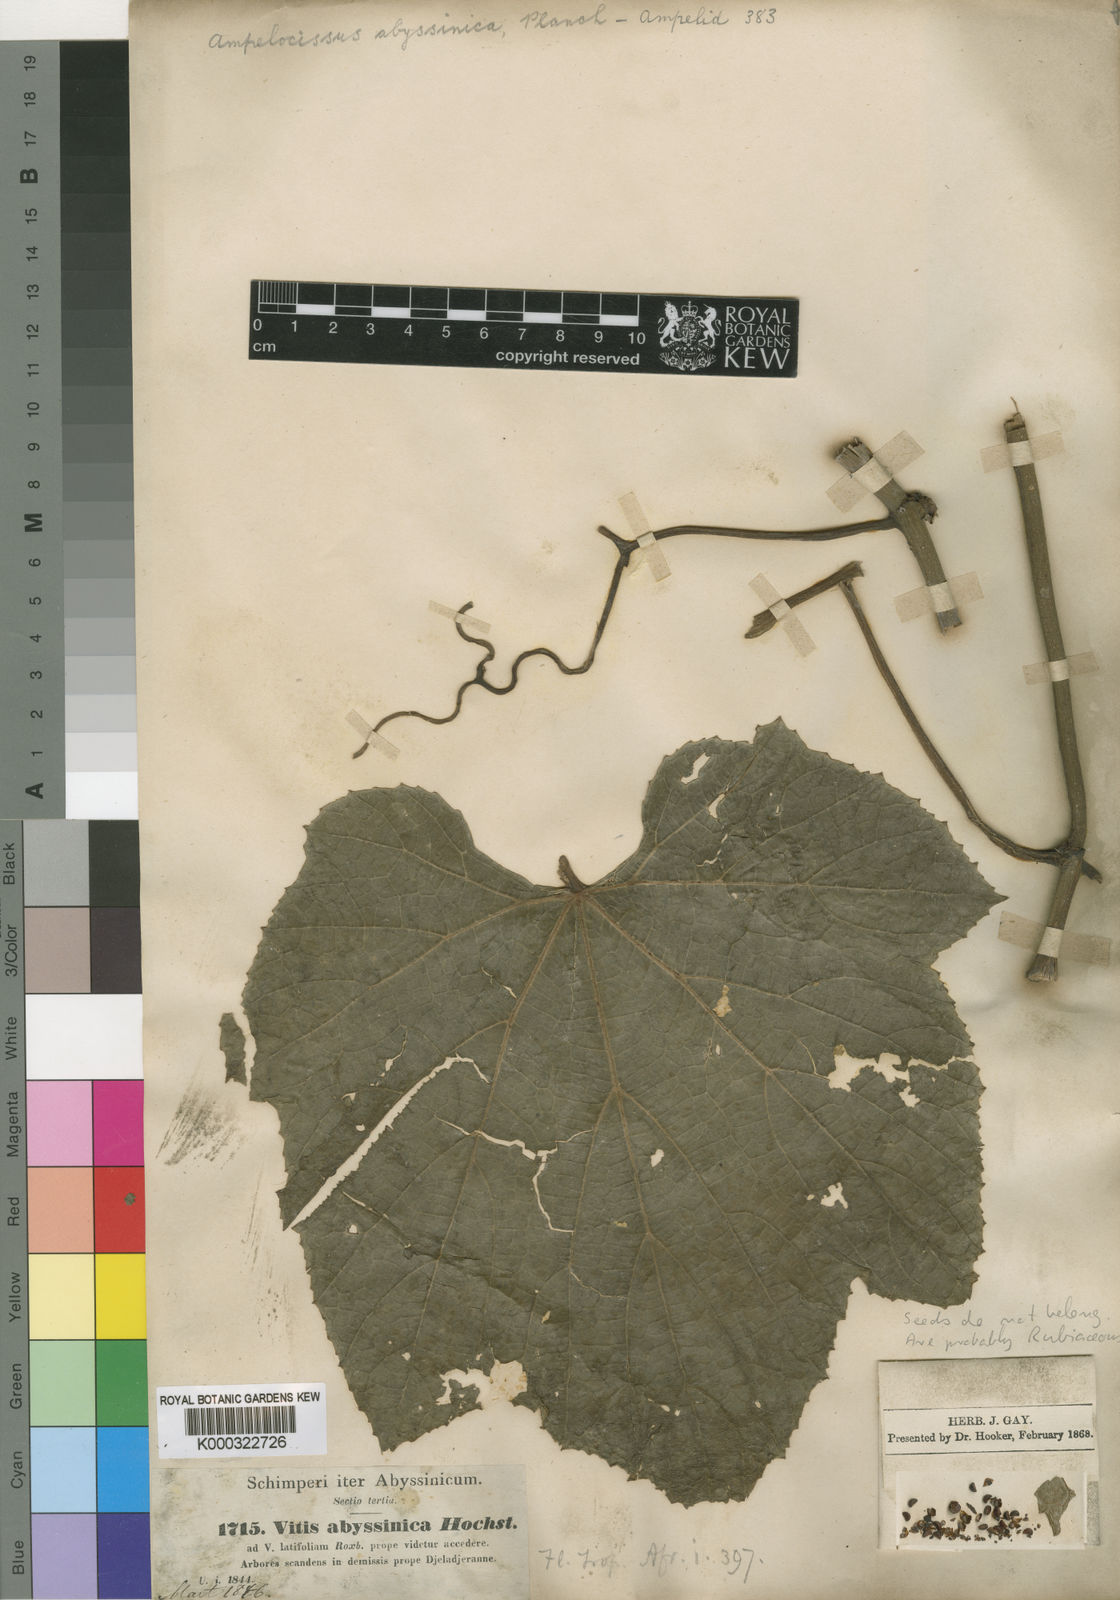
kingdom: Plantae
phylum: Tracheophyta
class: Magnoliopsida
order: Vitales
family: Vitaceae
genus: Ampelocissus
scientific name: Ampelocissus abyssinica
